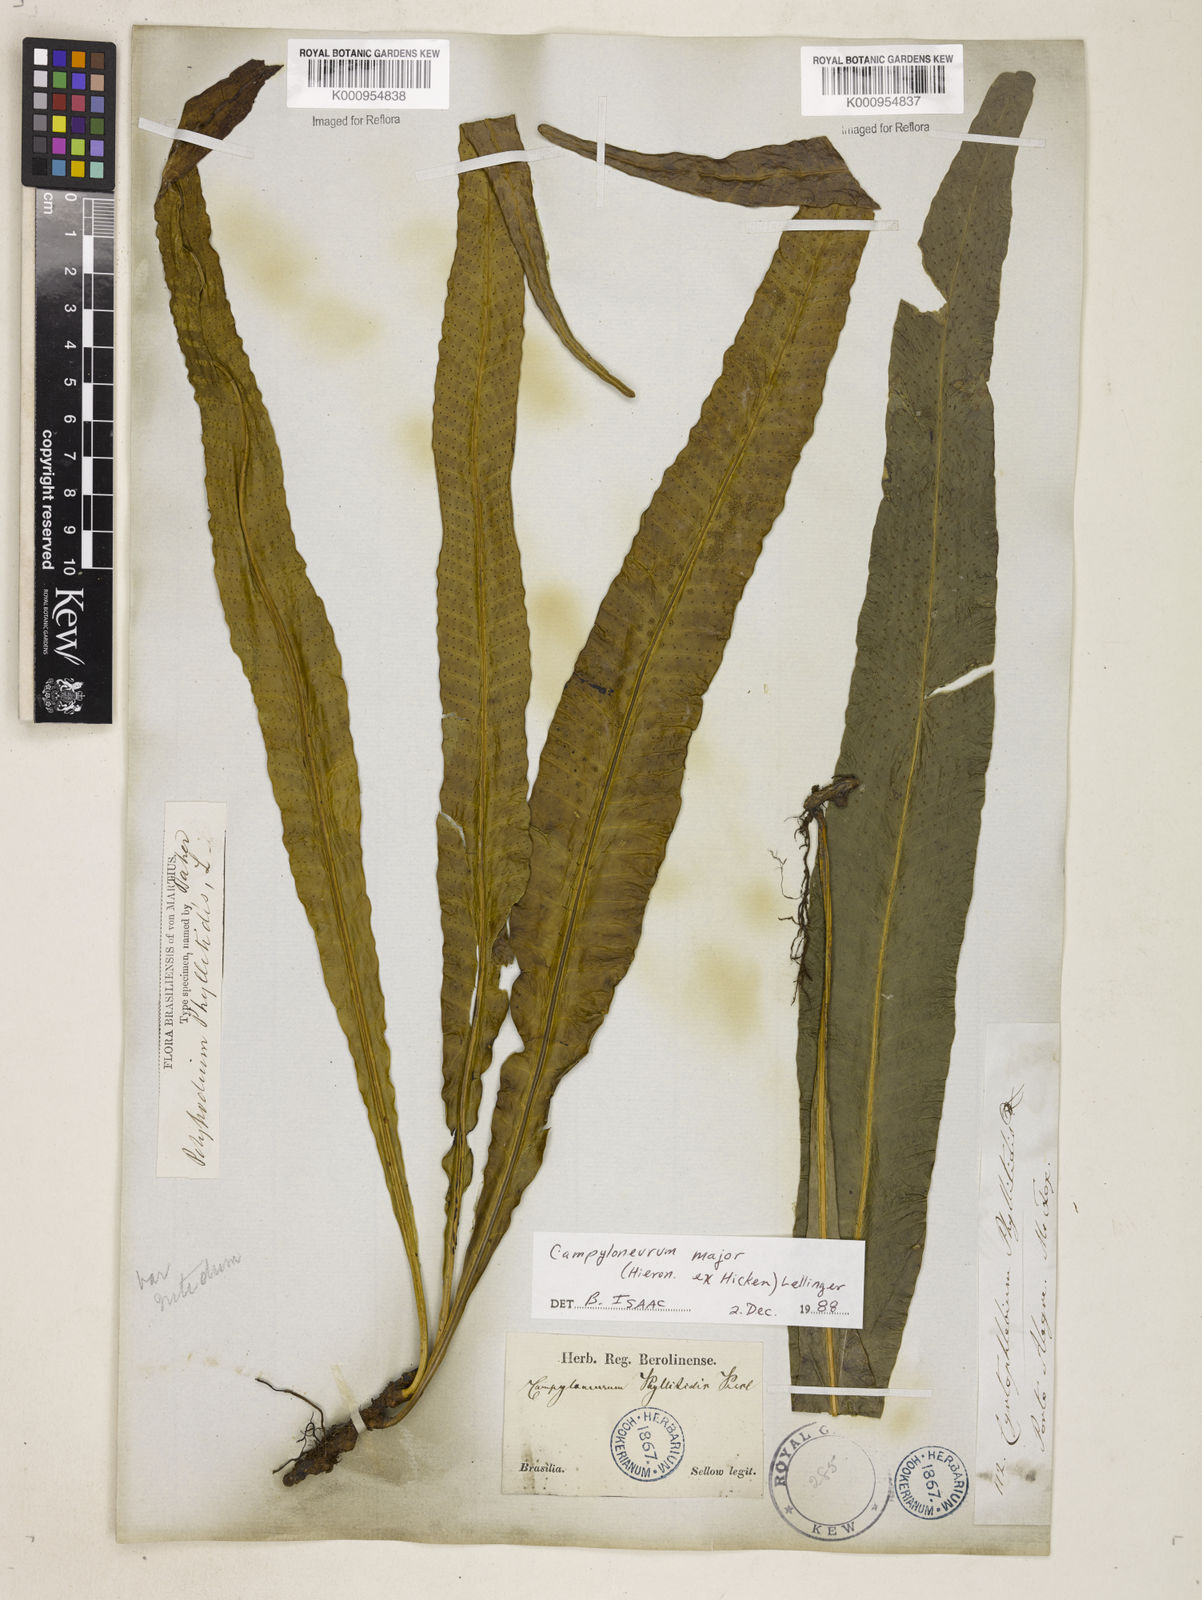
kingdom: Plantae
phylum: Tracheophyta
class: Polypodiopsida
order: Polypodiales
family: Polypodiaceae
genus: Campyloneurum
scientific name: Campyloneurum majus
